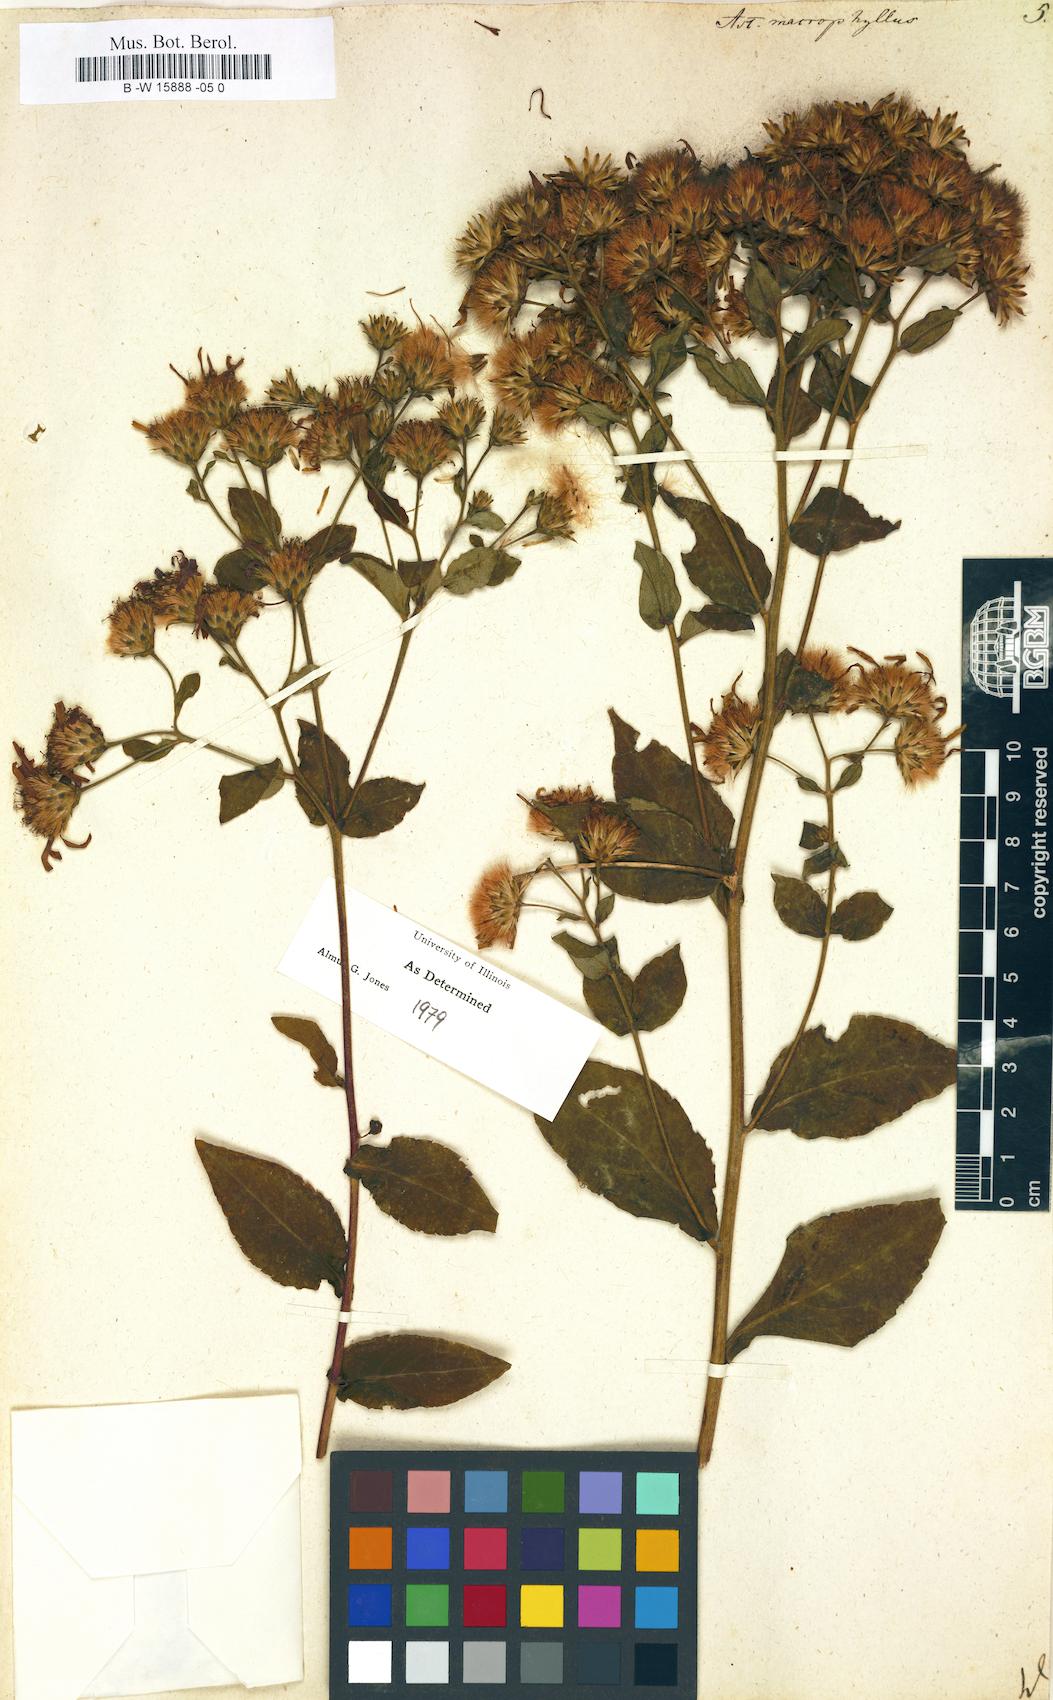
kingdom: Plantae
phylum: Tracheophyta
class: Magnoliopsida
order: Asterales
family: Asteraceae
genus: Eurybia
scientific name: Eurybia macrophylla
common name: Big-leaved aster
